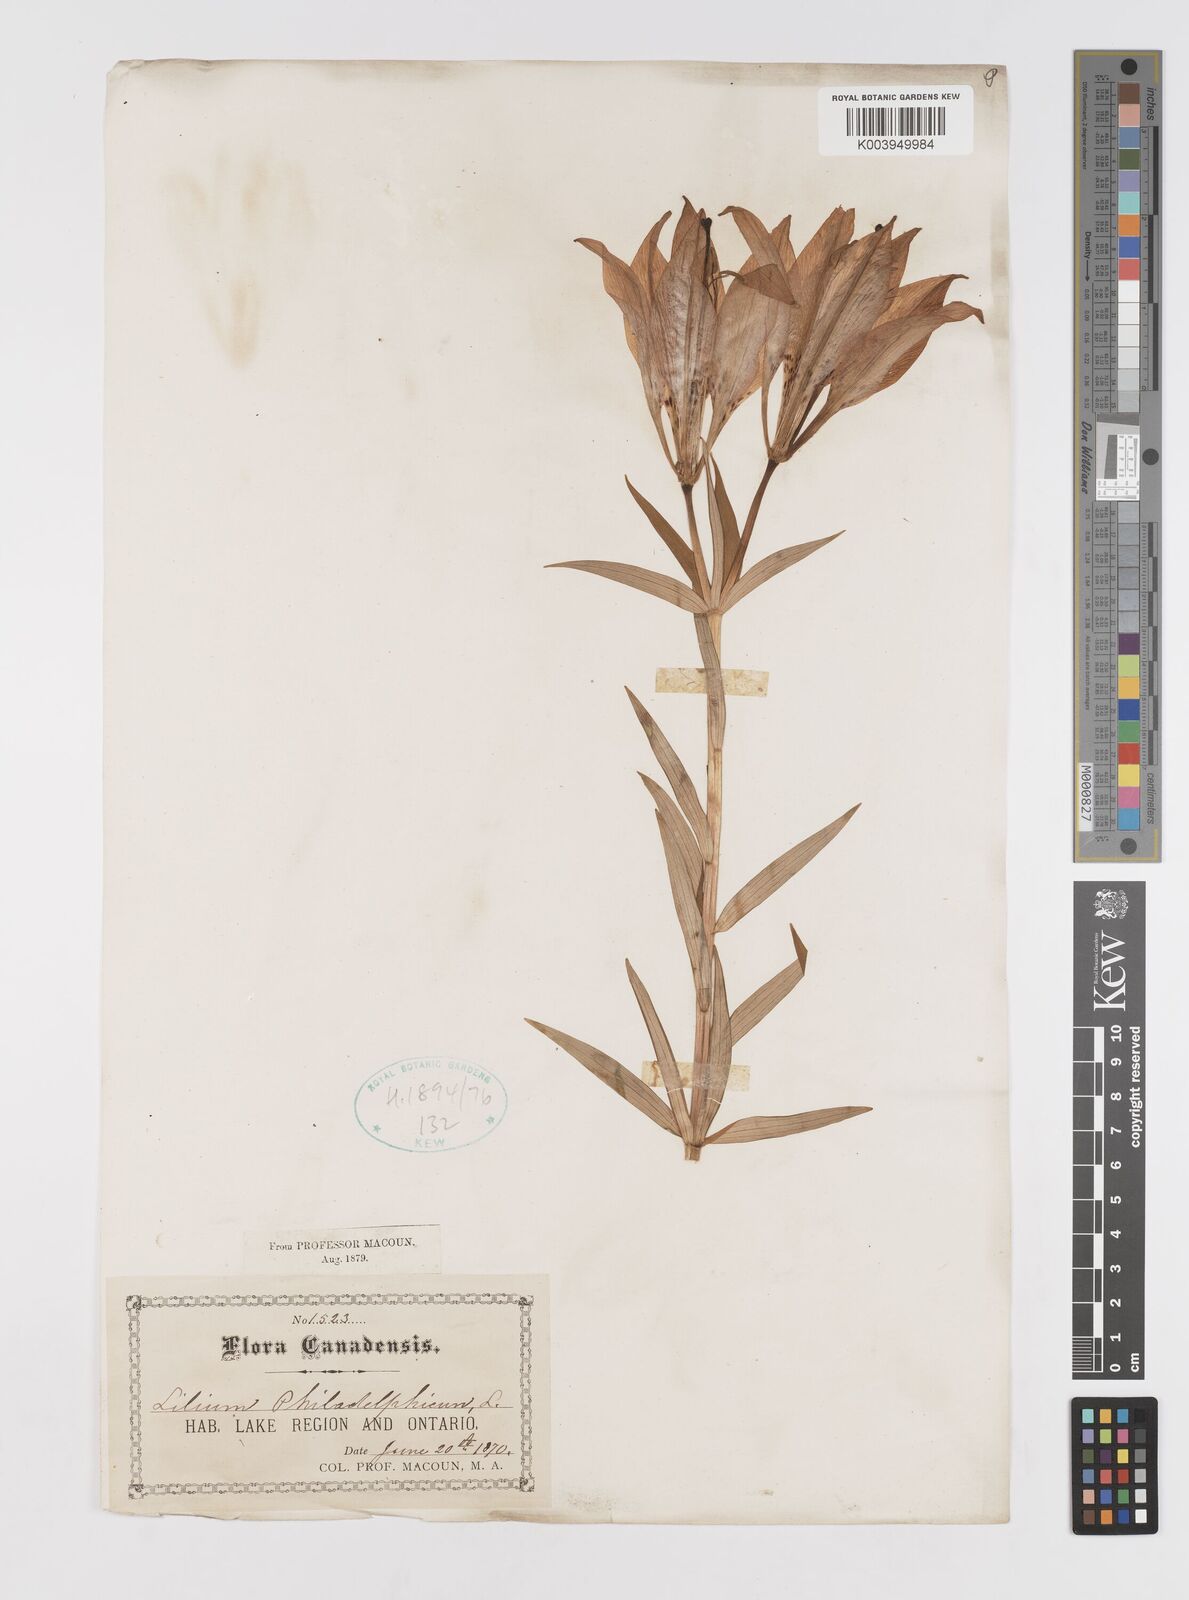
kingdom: Plantae
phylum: Tracheophyta
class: Liliopsida
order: Liliales
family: Liliaceae
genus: Lilium
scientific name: Lilium philadelphicum
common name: Red lily
